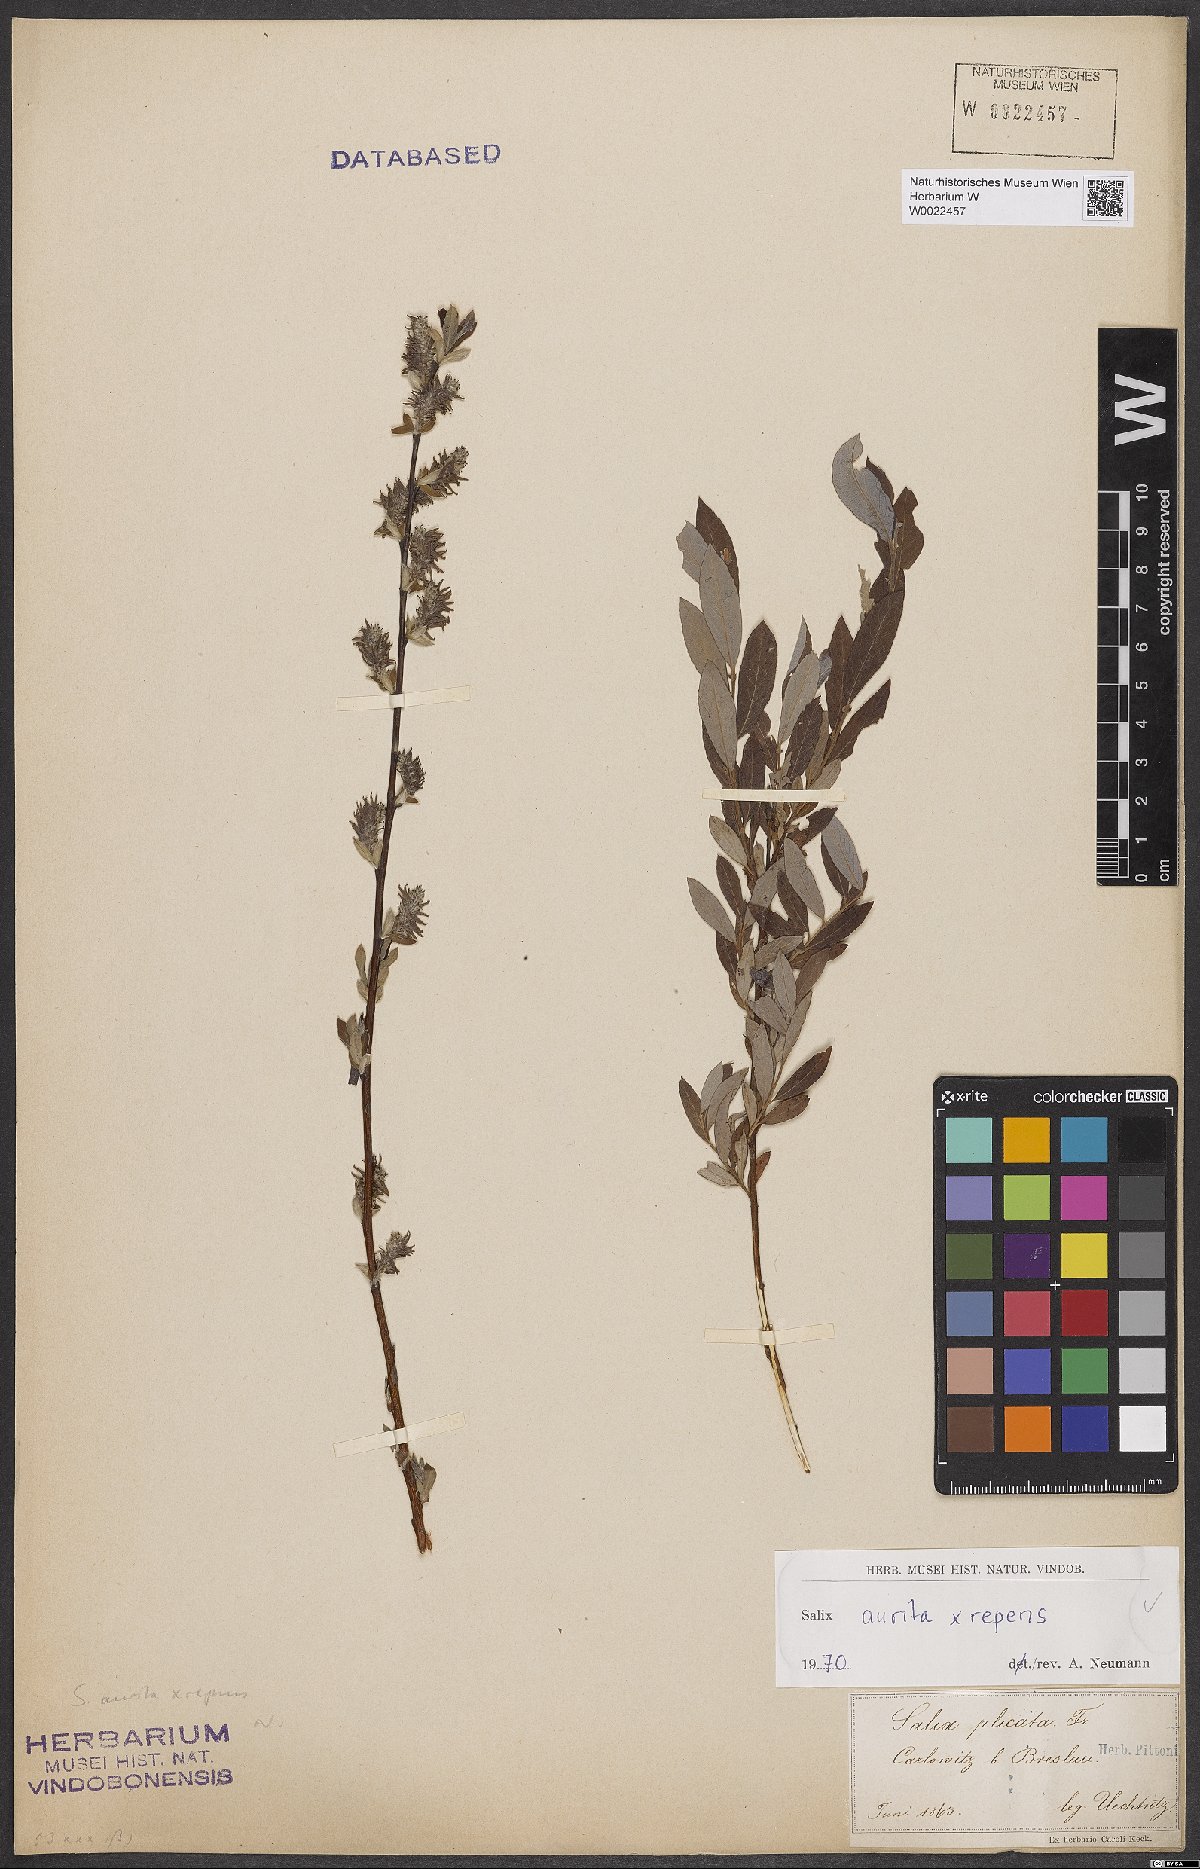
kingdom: Plantae
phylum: Tracheophyta
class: Magnoliopsida
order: Malpighiales
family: Salicaceae
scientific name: Salicaceae
